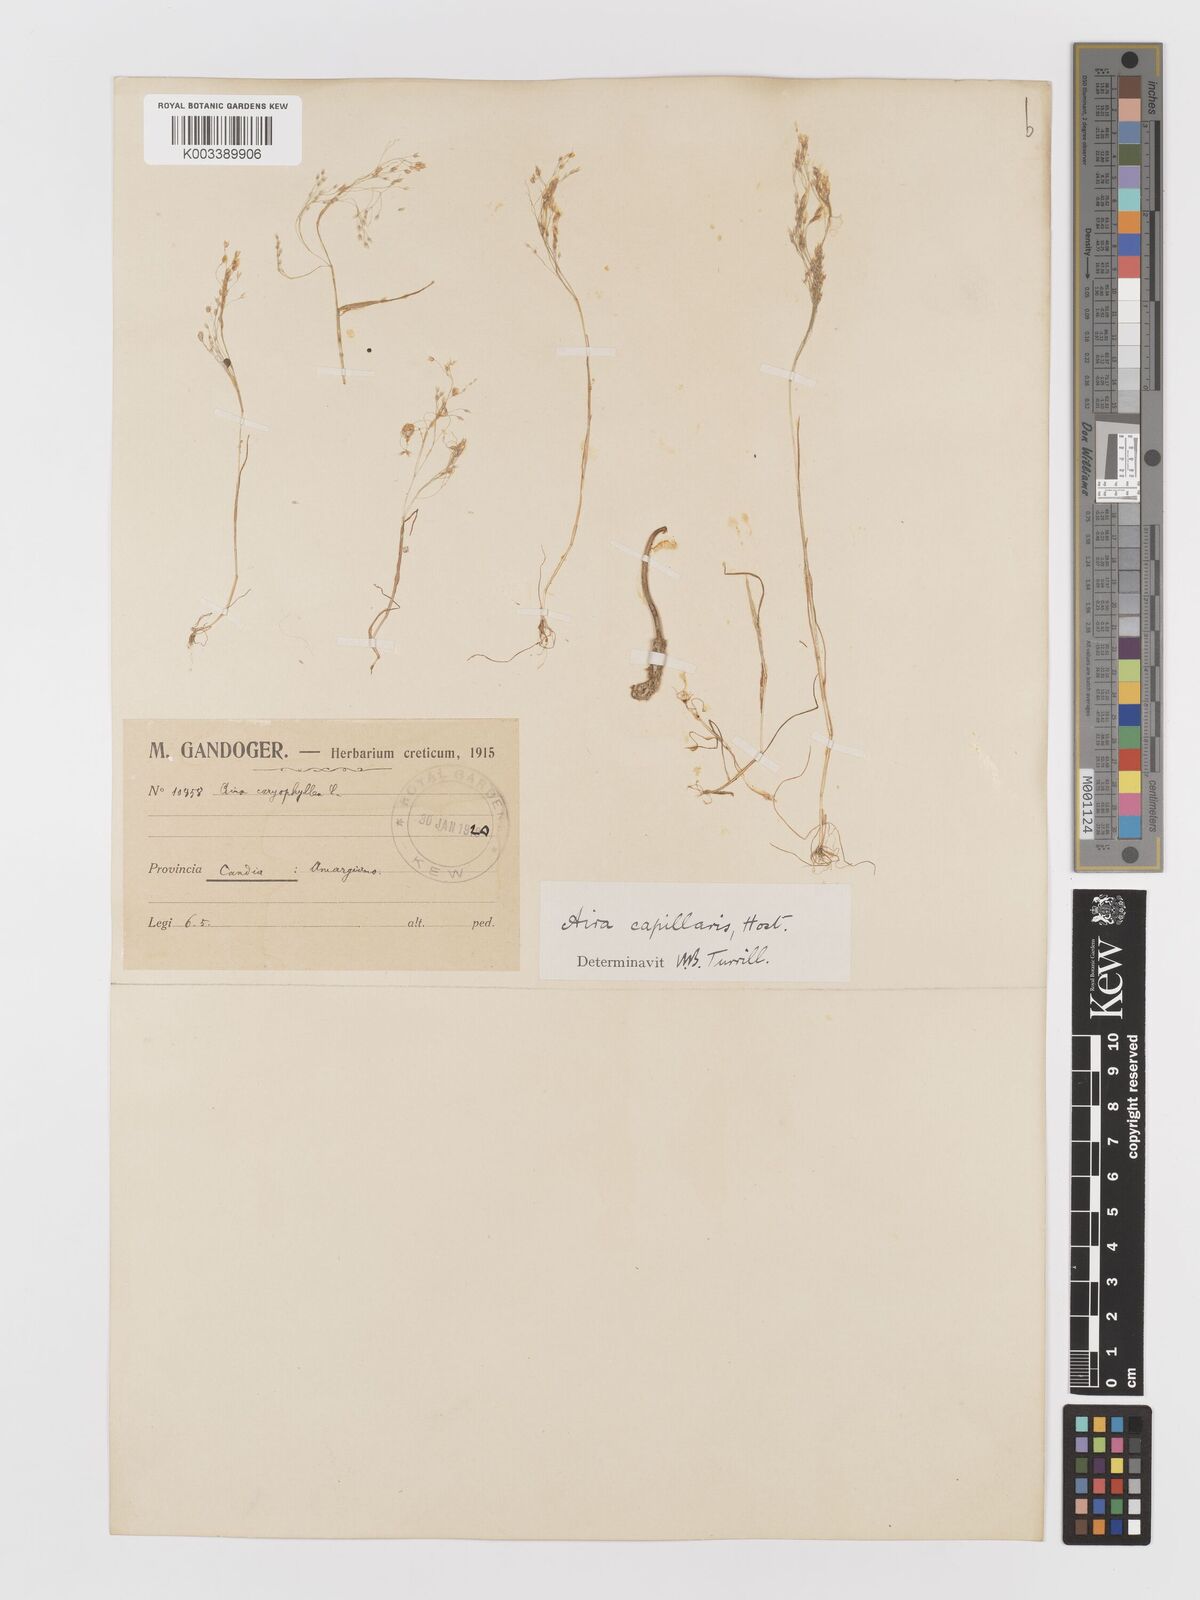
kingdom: Plantae
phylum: Tracheophyta
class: Liliopsida
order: Poales
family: Poaceae
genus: Aira
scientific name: Aira elegans
